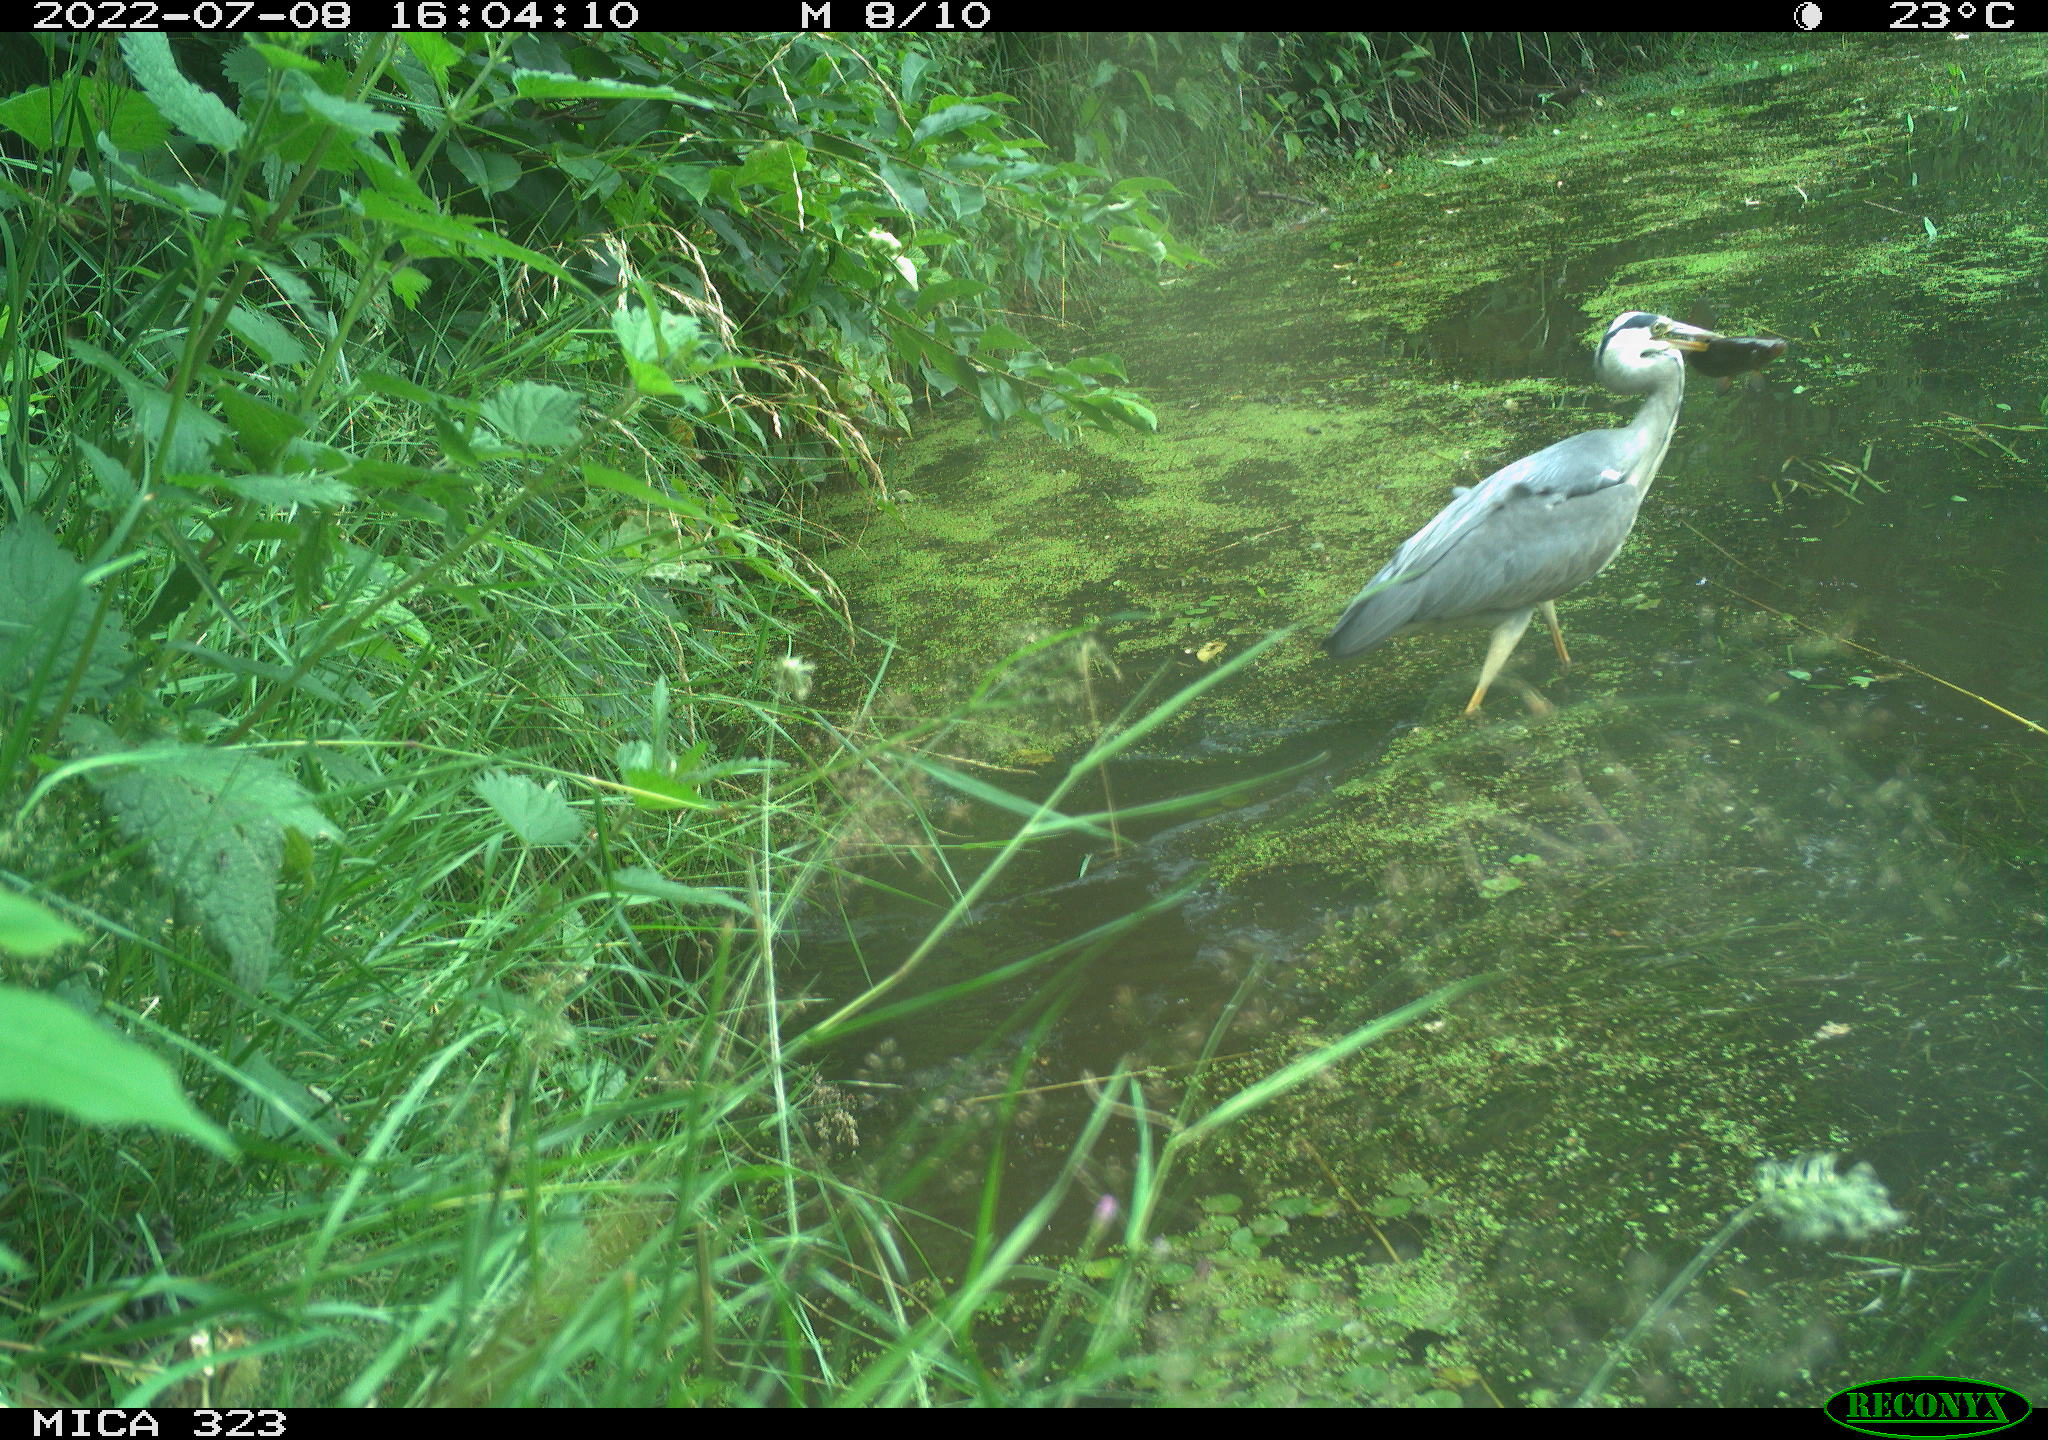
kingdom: Animalia
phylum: Chordata
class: Aves
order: Pelecaniformes
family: Ardeidae
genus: Ardea
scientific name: Ardea cinerea
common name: Grey heron
